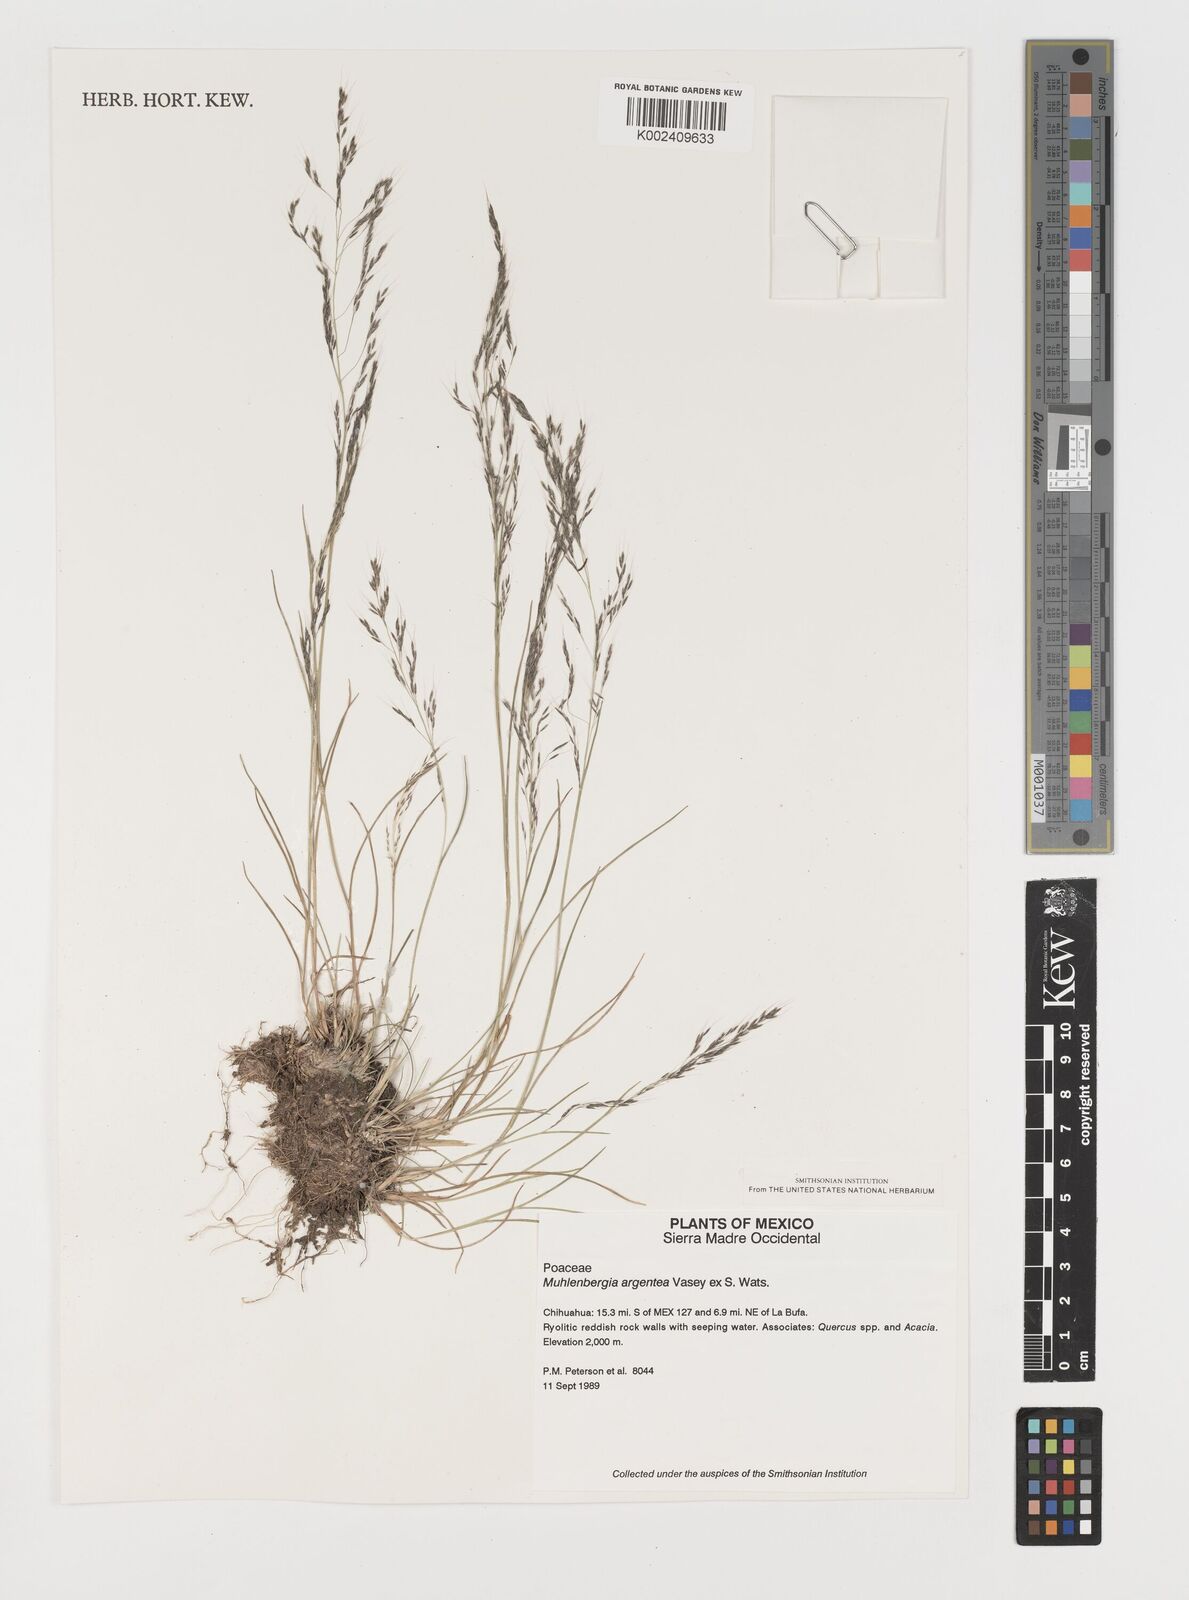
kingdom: Plantae
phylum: Tracheophyta
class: Liliopsida
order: Poales
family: Poaceae
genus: Muhlenbergia
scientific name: Muhlenbergia argentea
